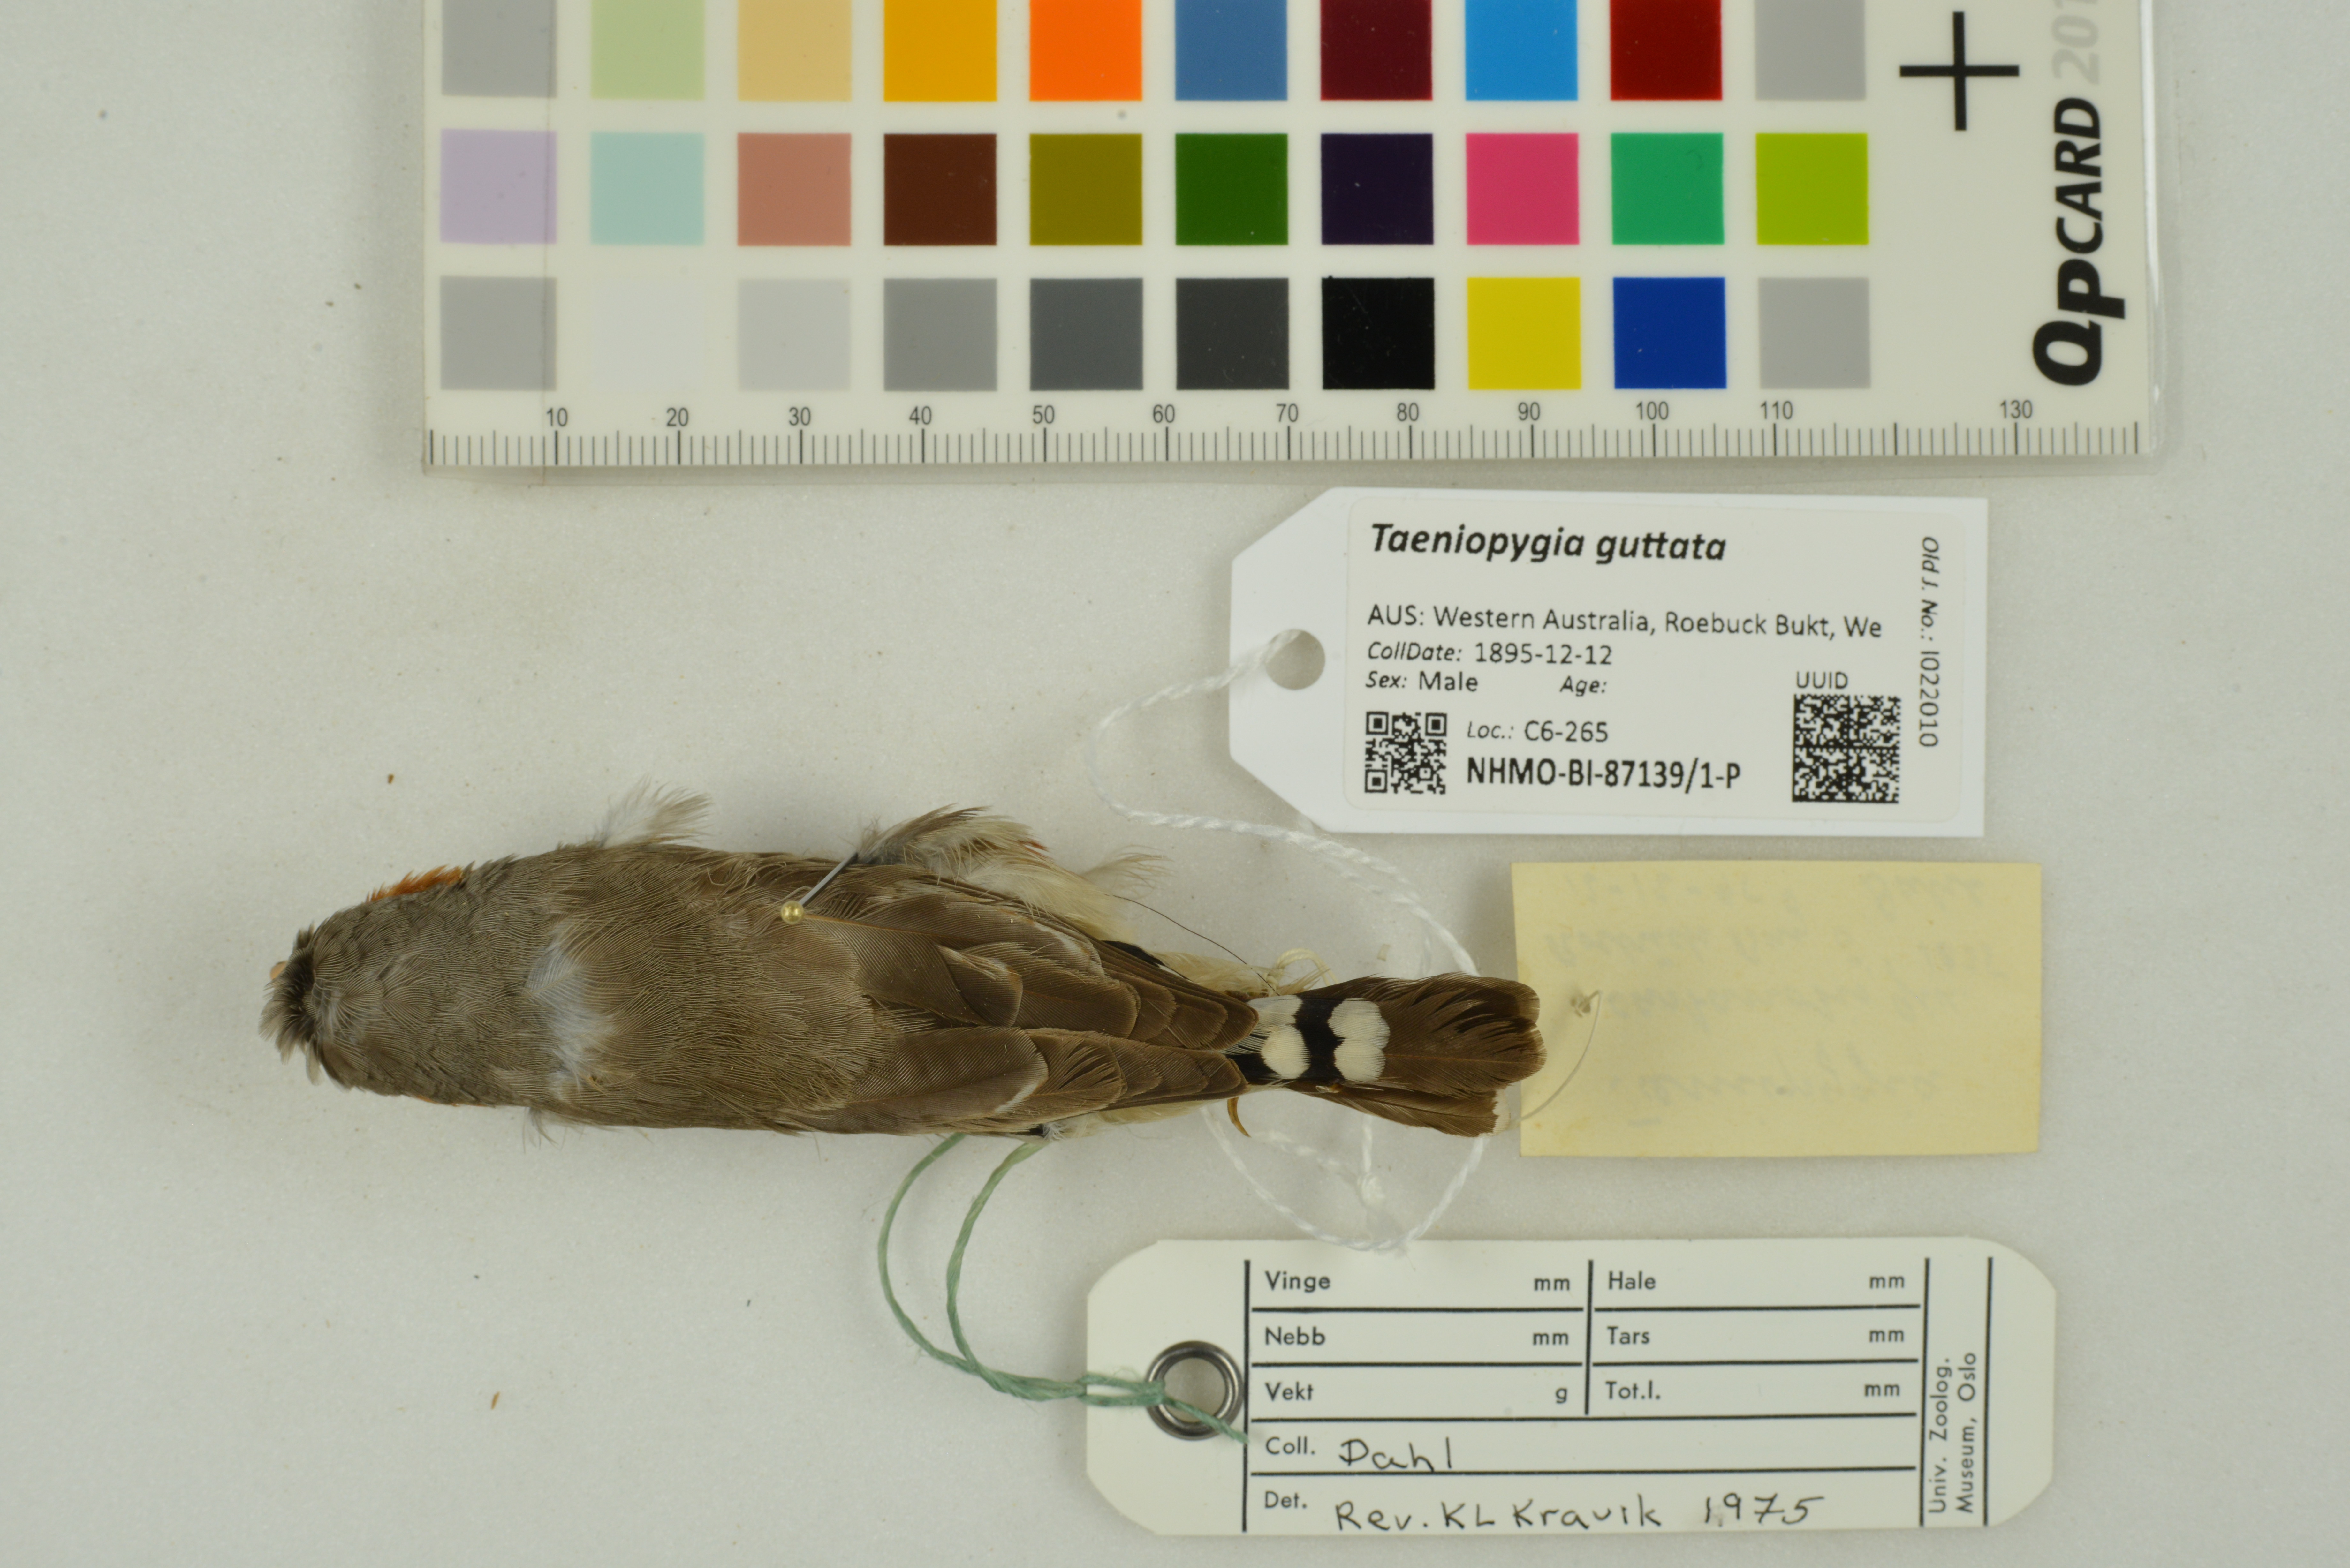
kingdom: Animalia
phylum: Chordata
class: Aves
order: Passeriformes
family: Estrildidae
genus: Taeniopygia
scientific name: Taeniopygia guttata
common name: Zebra finch
